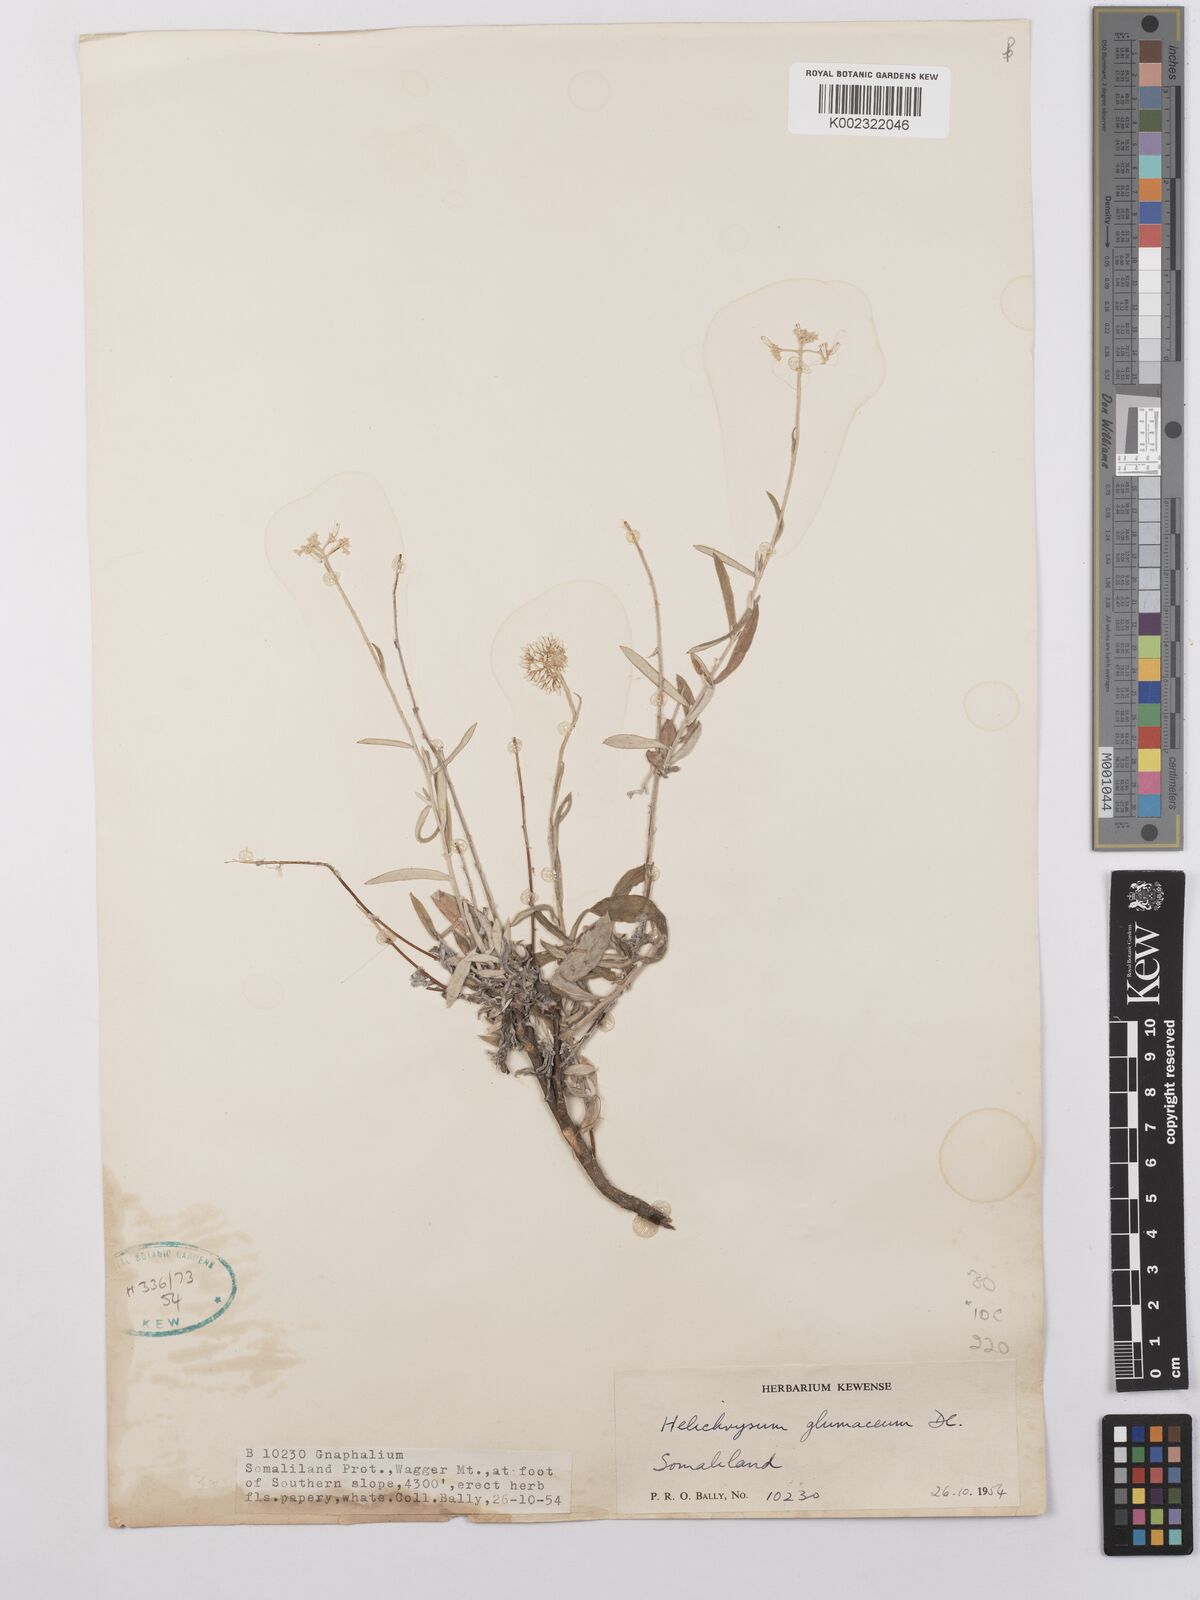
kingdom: Plantae
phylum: Tracheophyta
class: Magnoliopsida
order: Asterales
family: Asteraceae
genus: Helichrysum
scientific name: Helichrysum glumaceum
